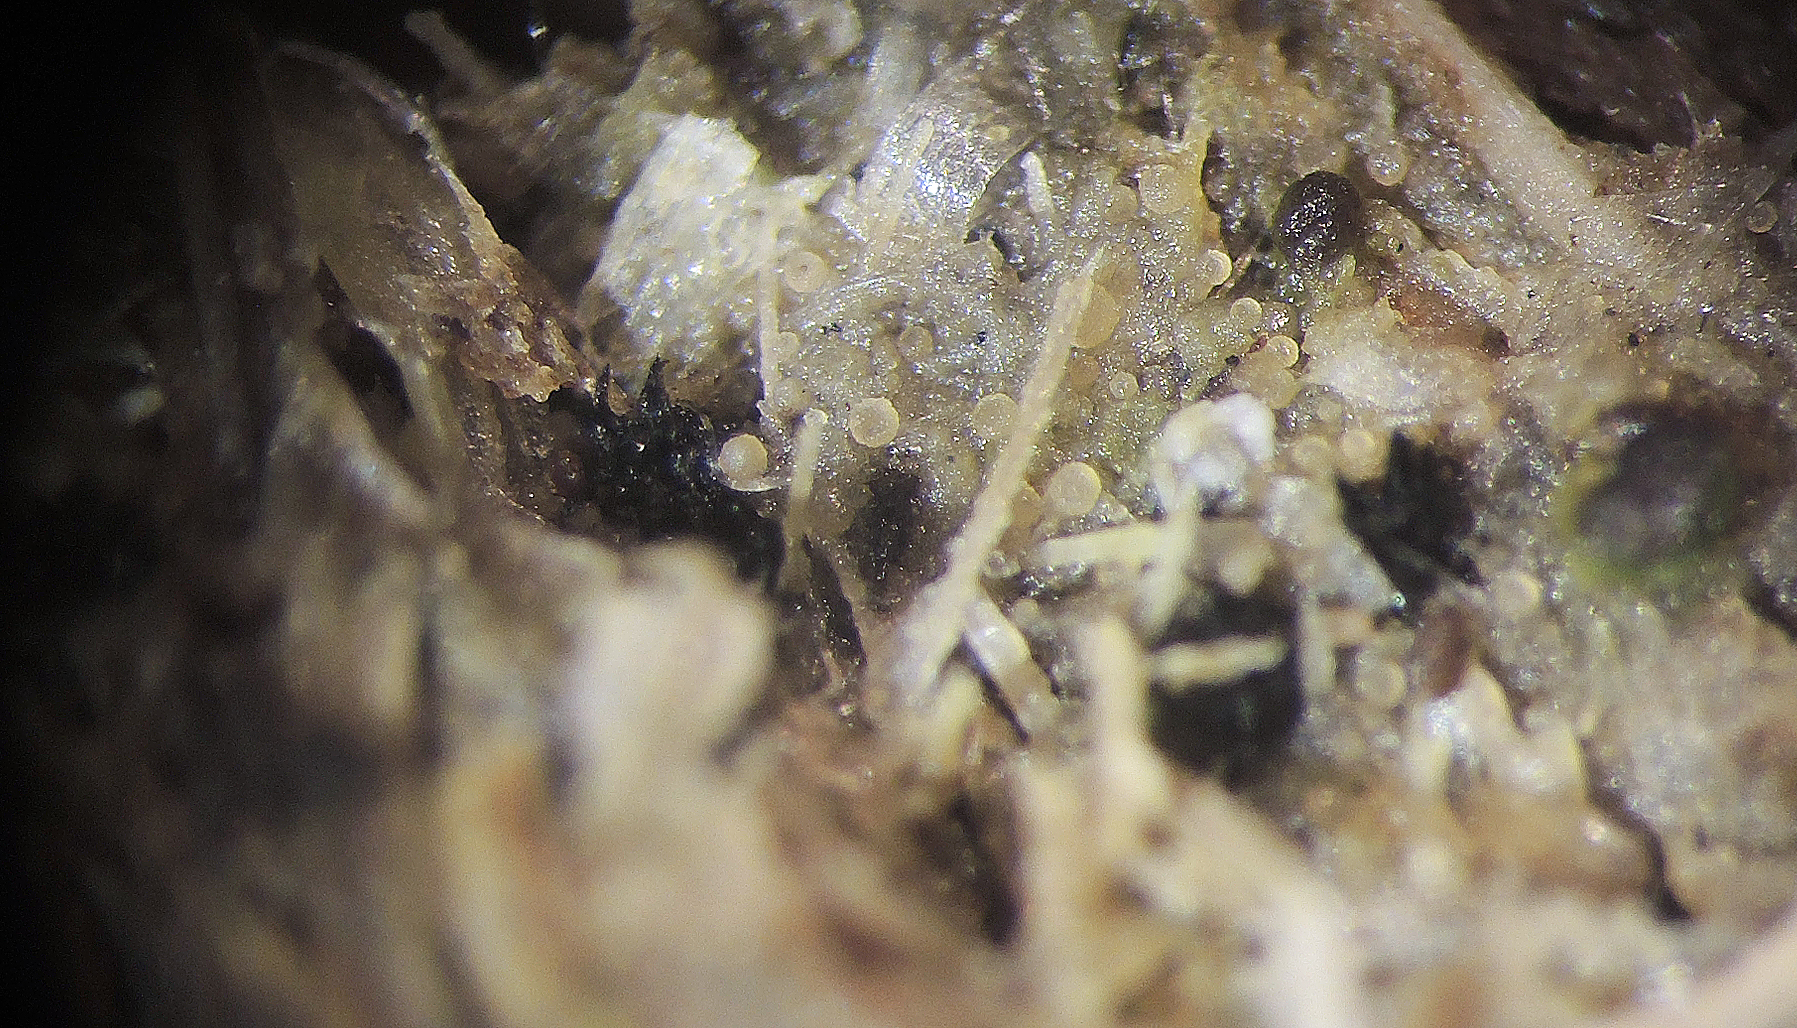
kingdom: Fungi
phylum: Ascomycota
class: Sordariomycetes
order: Sordariales
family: Neoschizotheciaceae
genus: Neoschizothecium
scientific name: Neoschizothecium aloides
